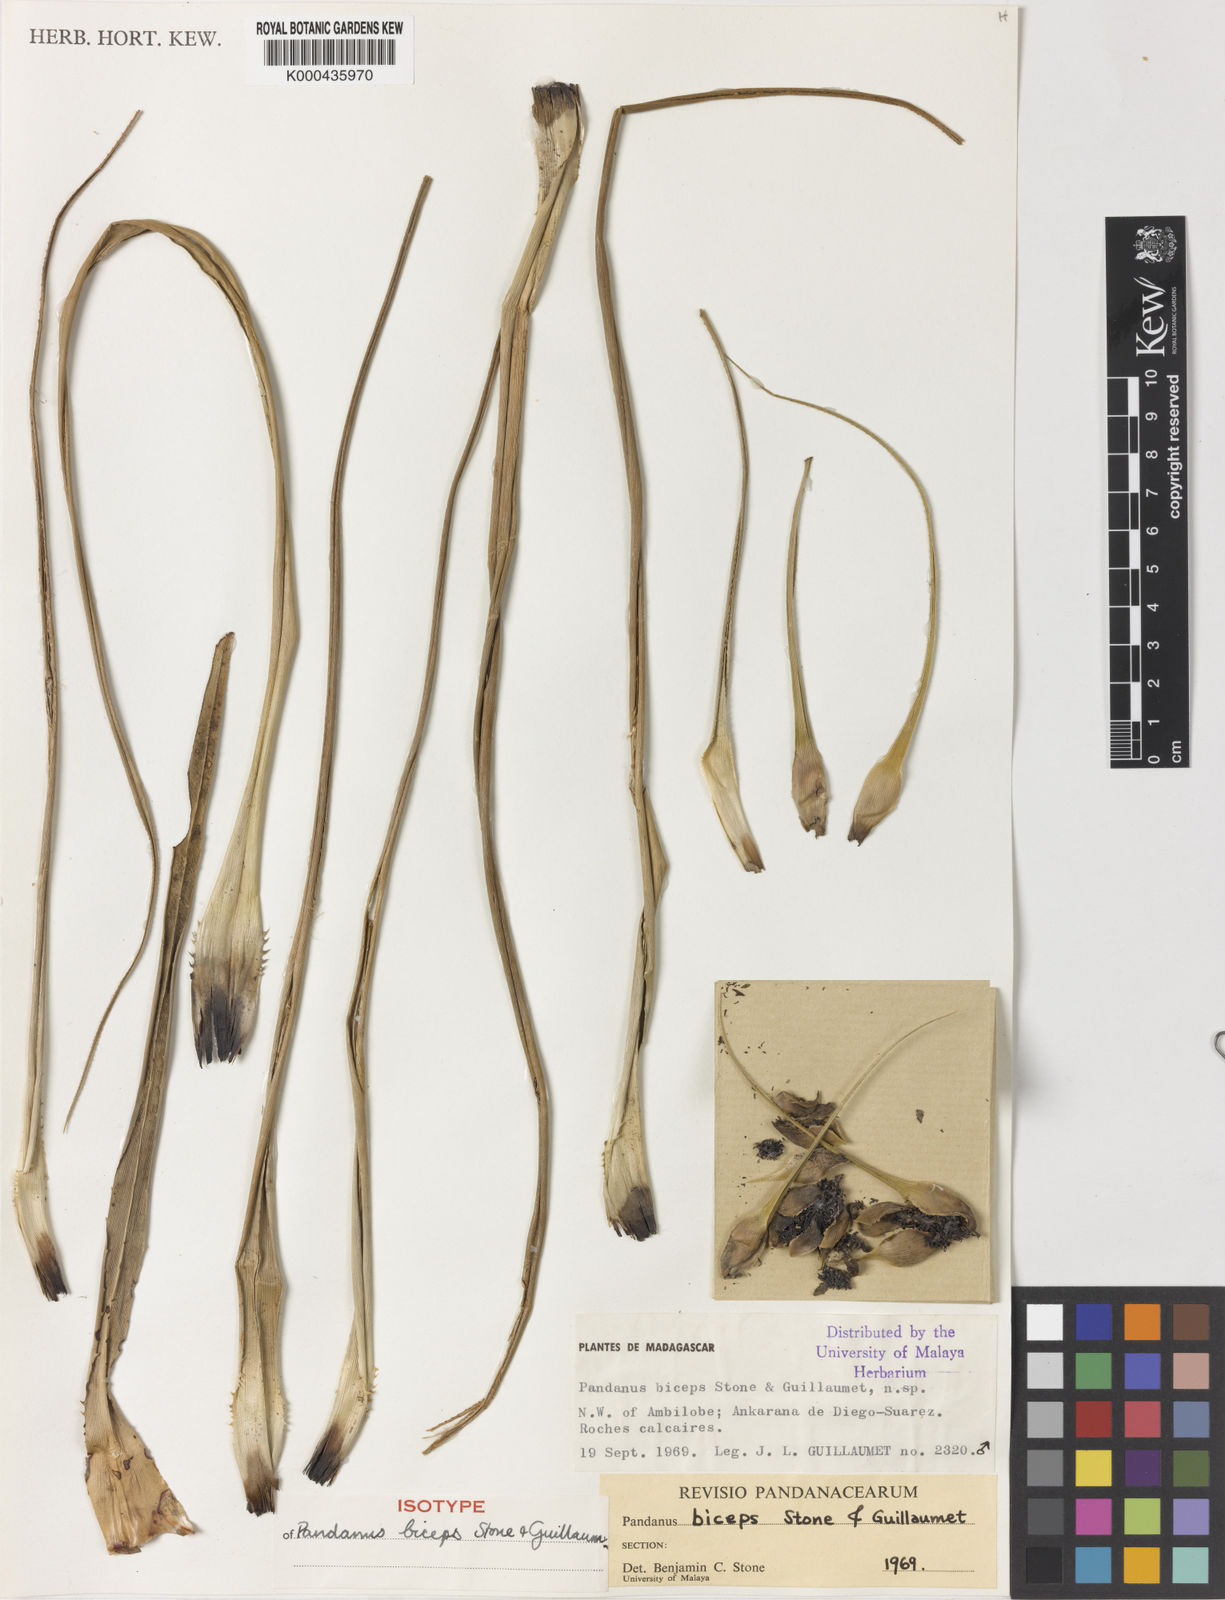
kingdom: Plantae
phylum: Tracheophyta
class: Liliopsida
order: Pandanales
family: Pandanaceae
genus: Pandanus
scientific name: Pandanus biceps
